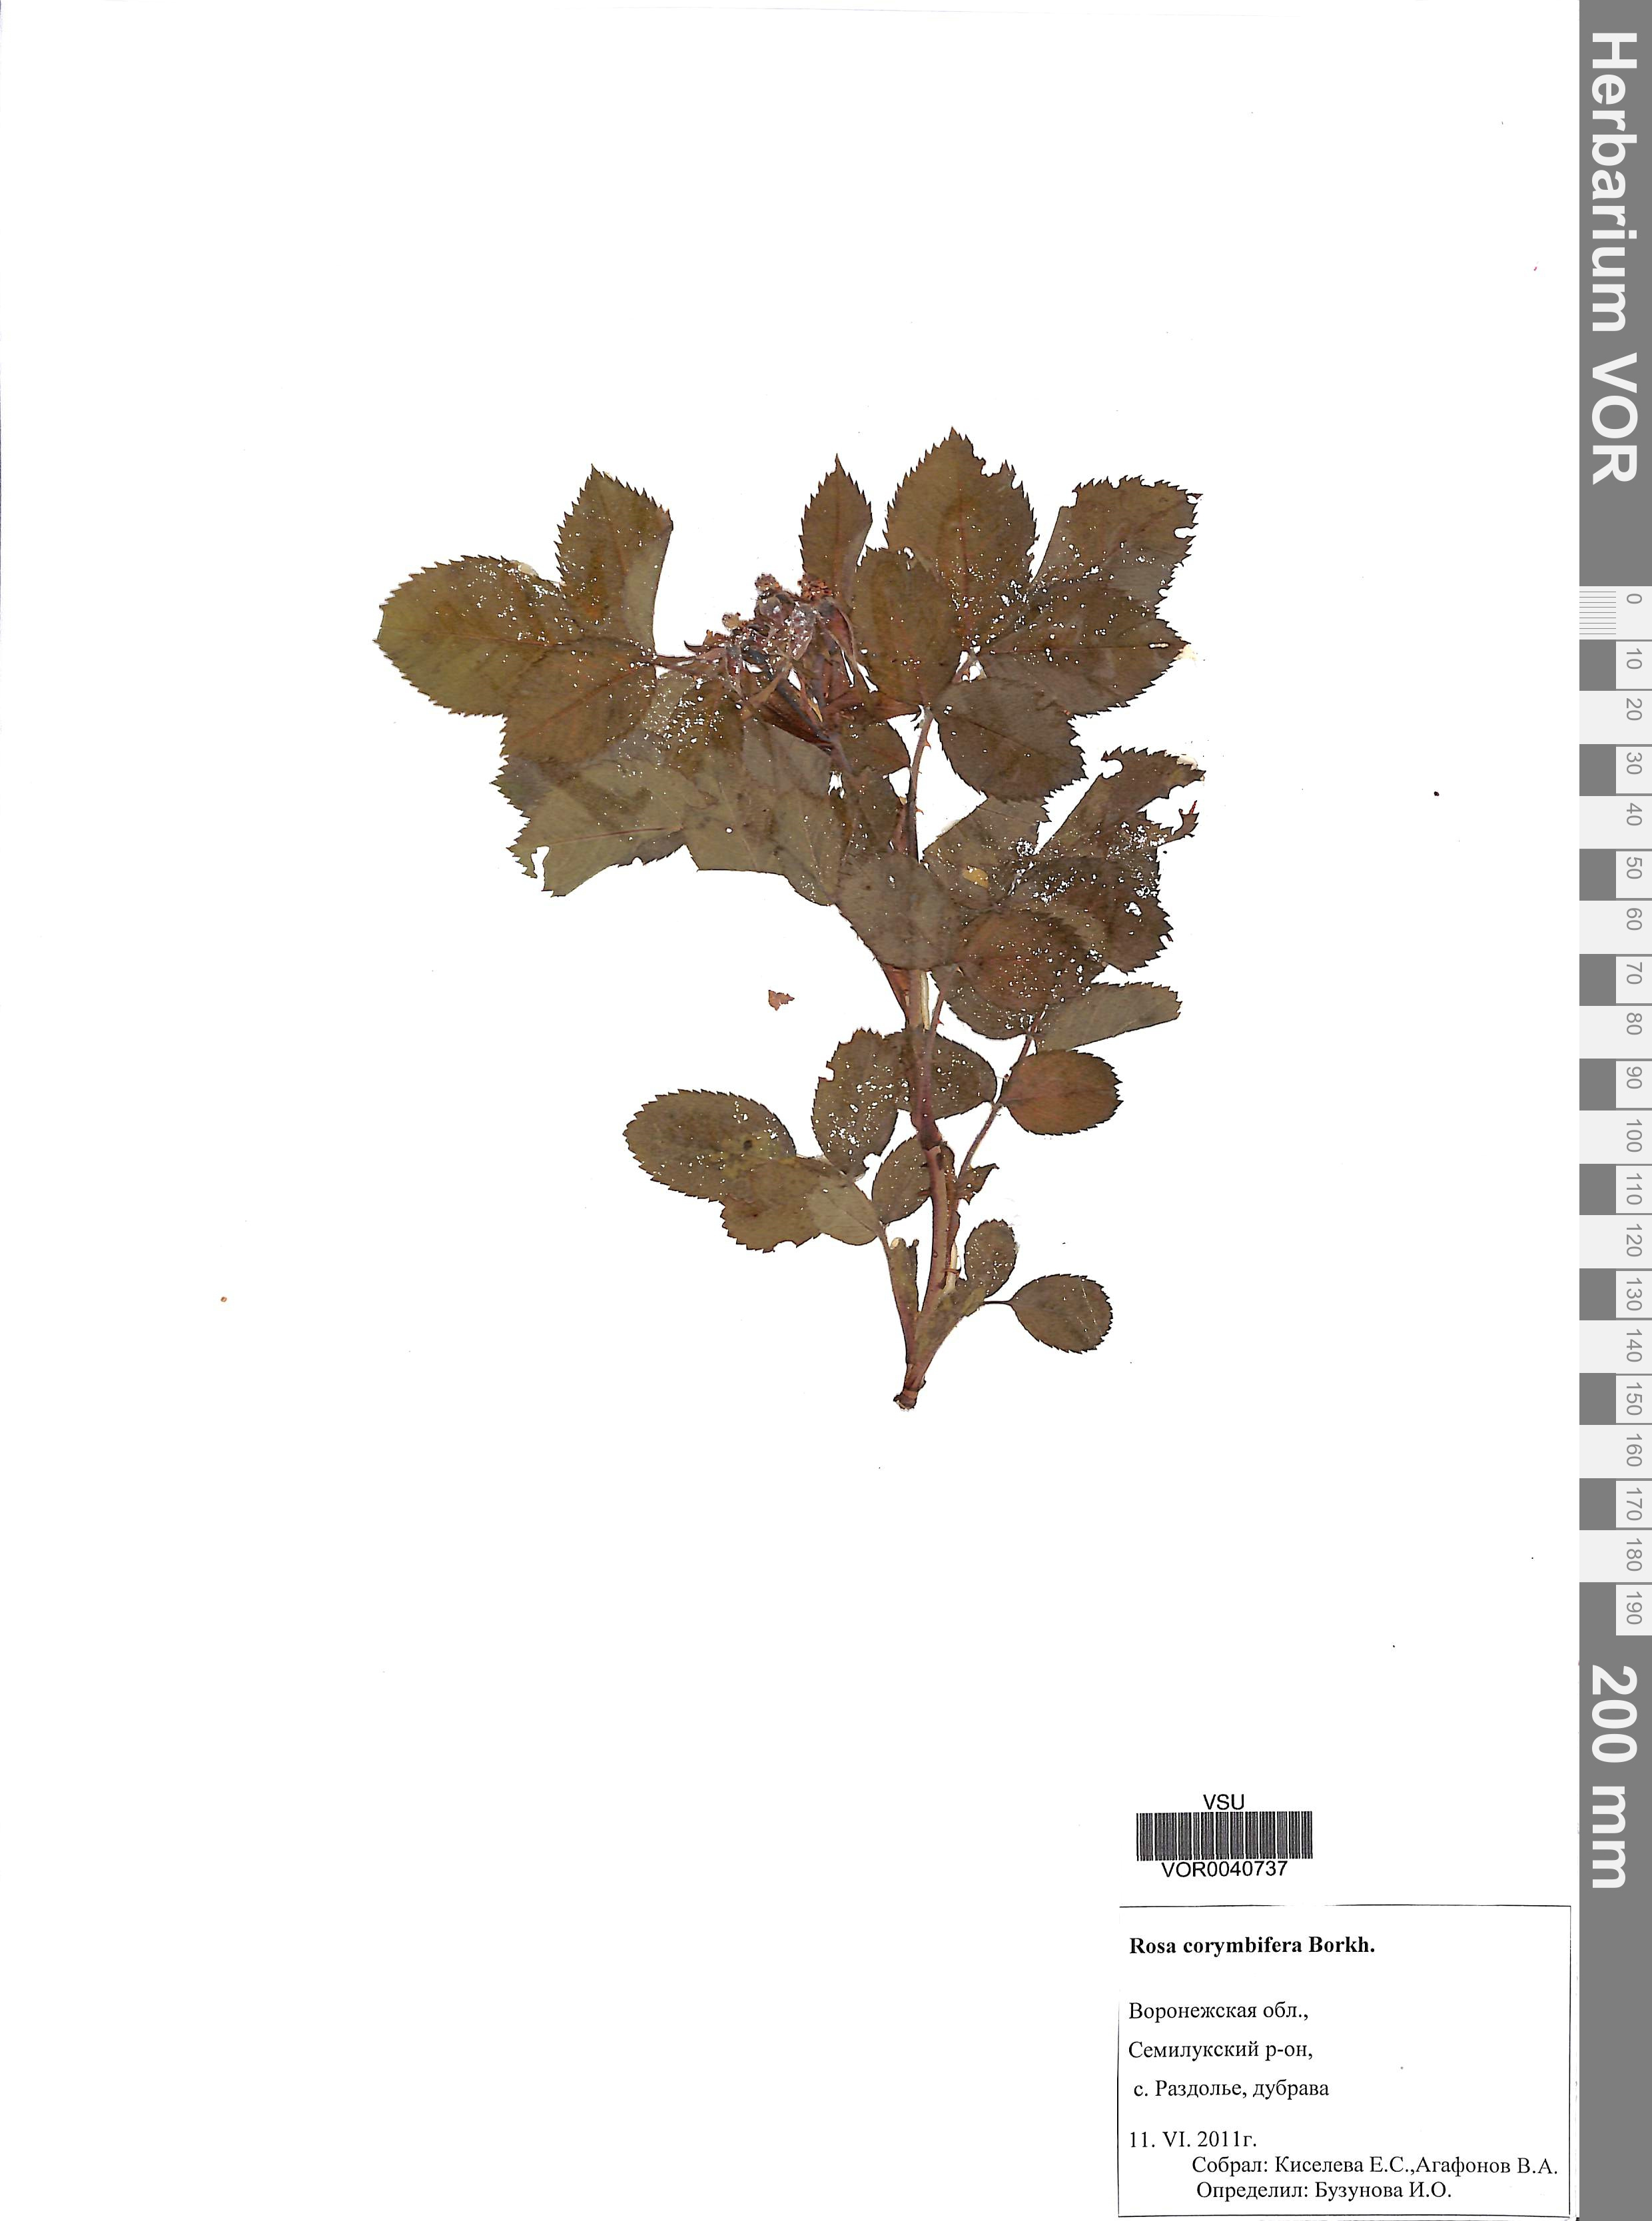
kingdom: Plantae
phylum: Tracheophyta
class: Magnoliopsida
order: Rosales
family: Rosaceae
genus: Rosa
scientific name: Rosa corymbifera
